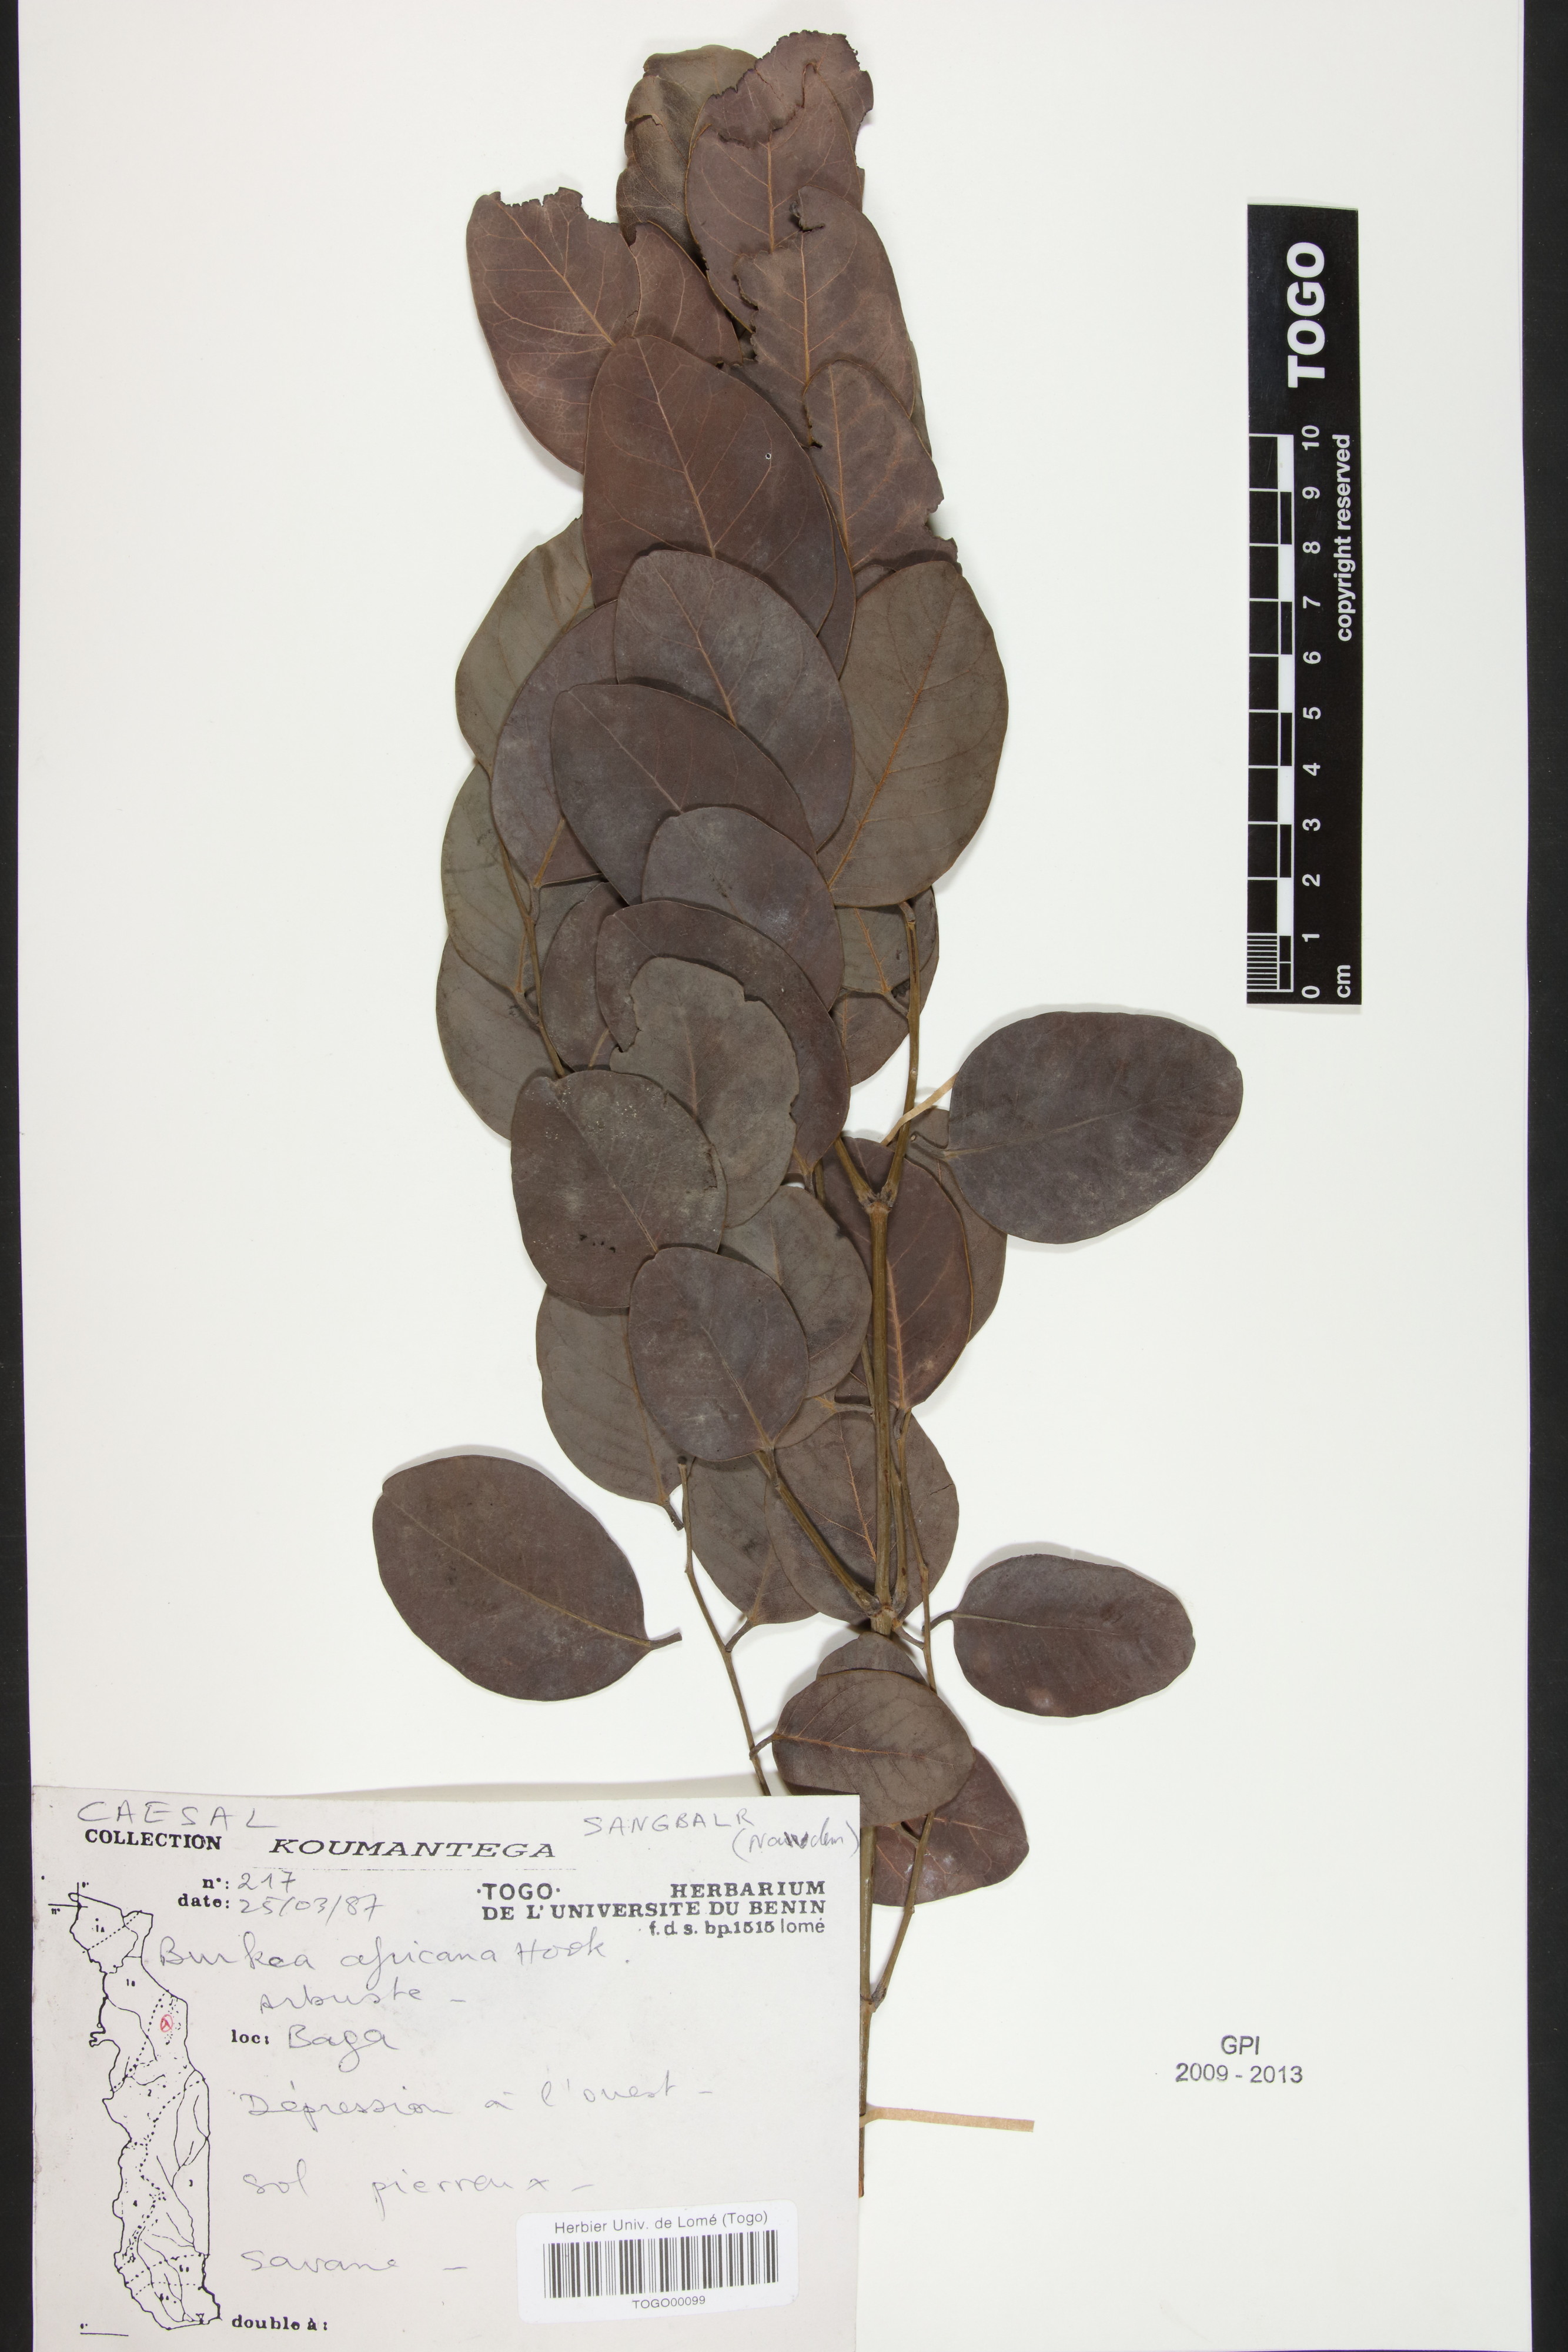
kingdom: Plantae
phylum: Tracheophyta
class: Magnoliopsida
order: Fabales
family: Fabaceae
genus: Burkea
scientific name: Burkea africana
